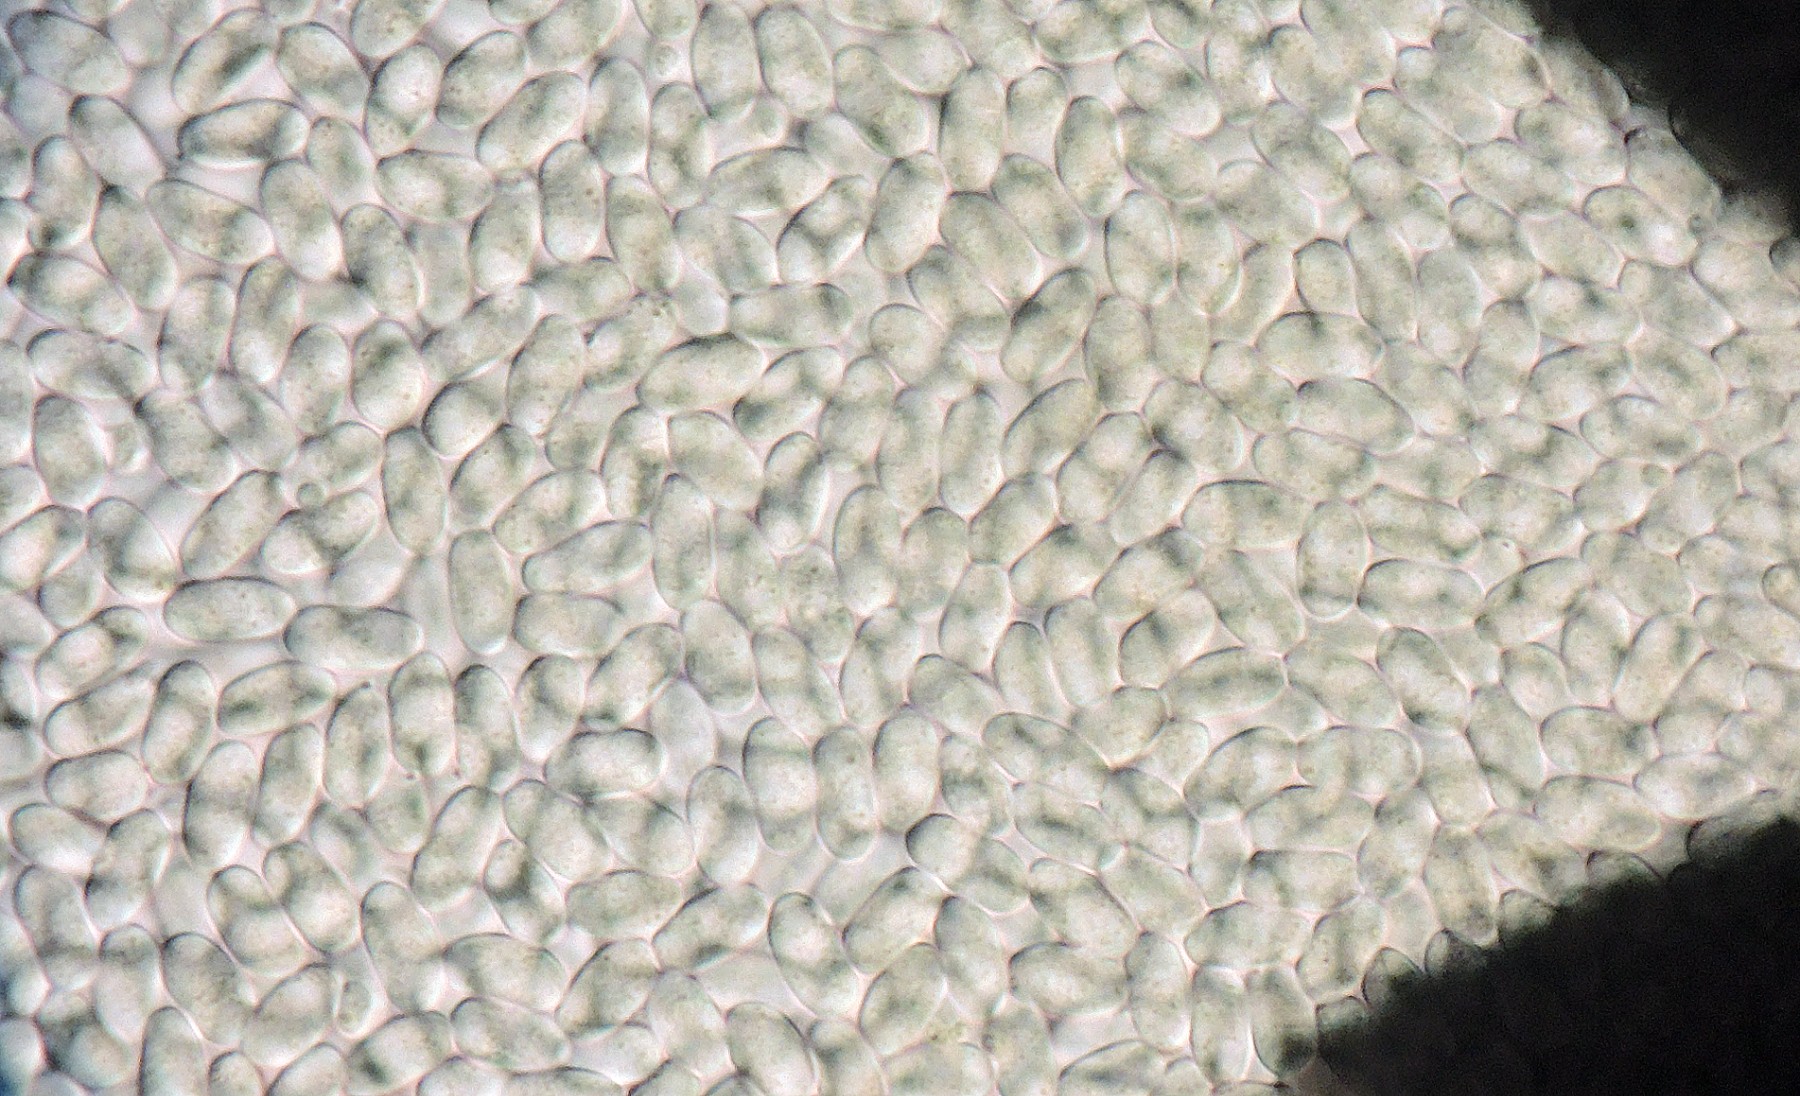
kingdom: Fungi
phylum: Mucoromycota
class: Mucoromycetes
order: Mucorales
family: Pilobolaceae
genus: Pilobolus
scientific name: Pilobolus umbonatus
